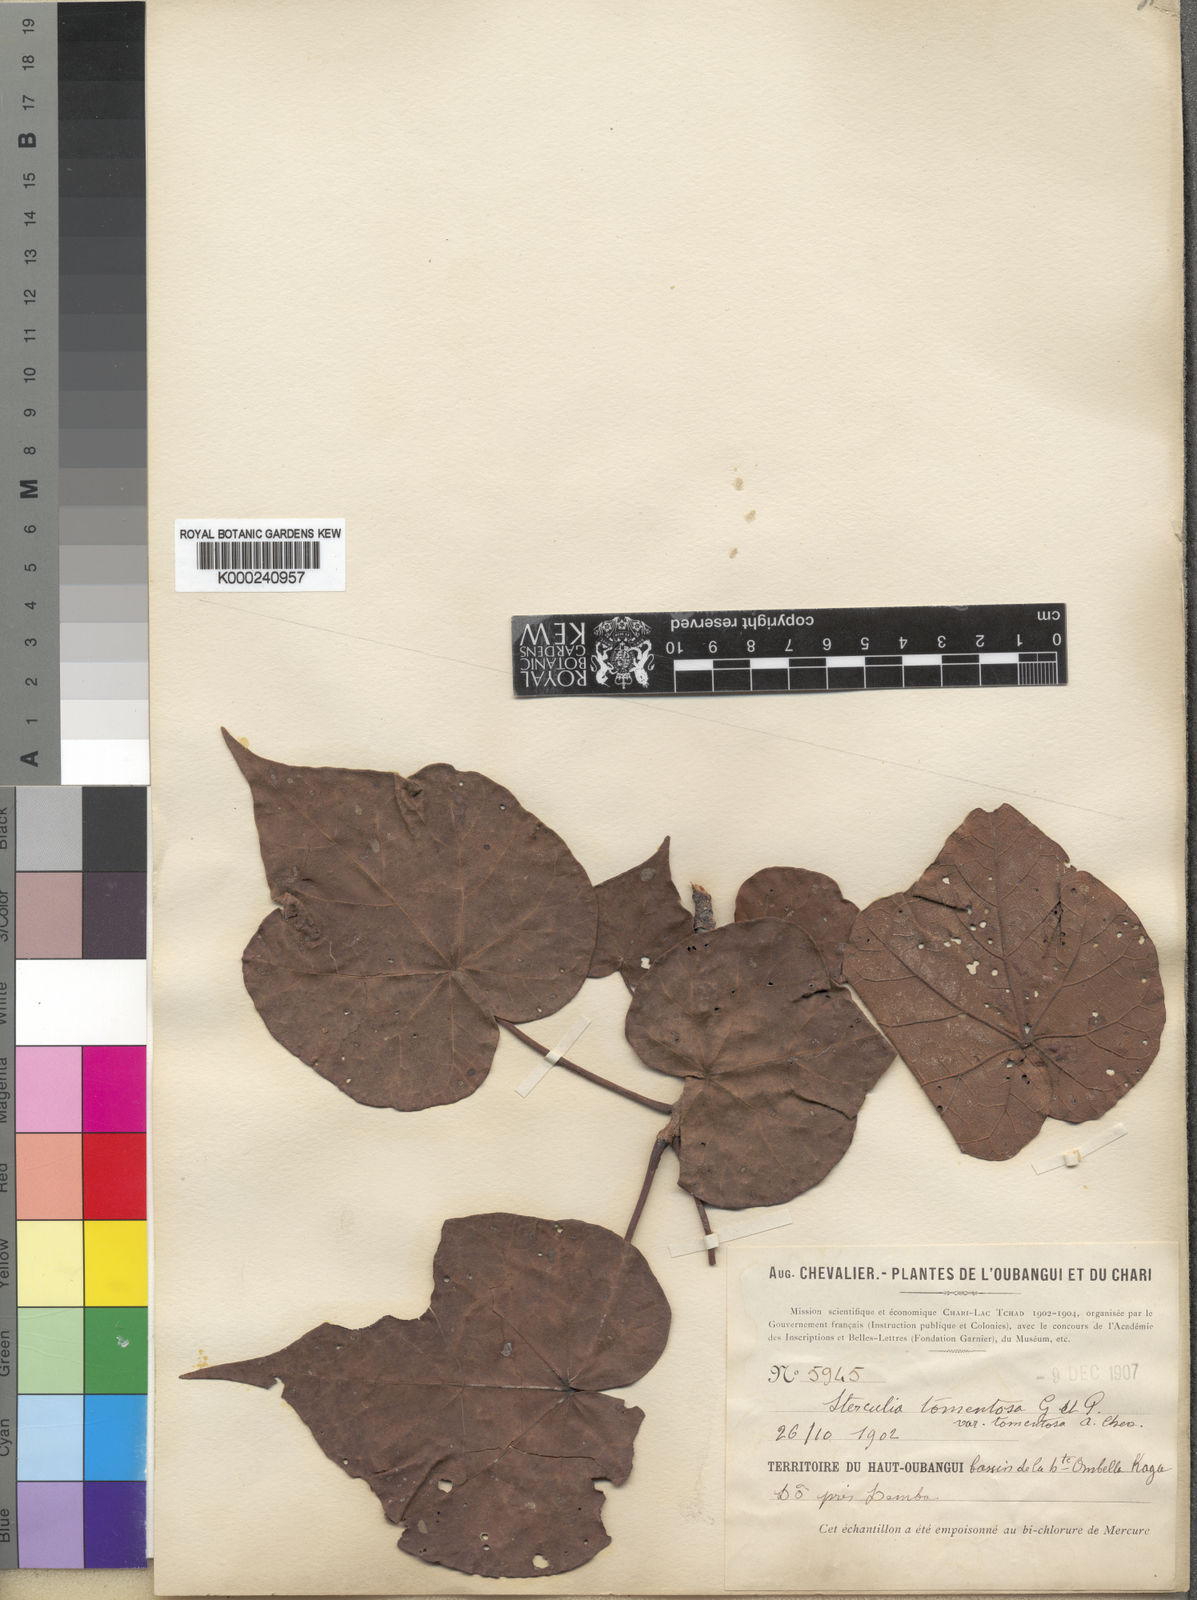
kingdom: Plantae
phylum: Tracheophyta
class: Magnoliopsida
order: Malvales
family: Malvaceae
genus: Sterculia
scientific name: Sterculia setigera
